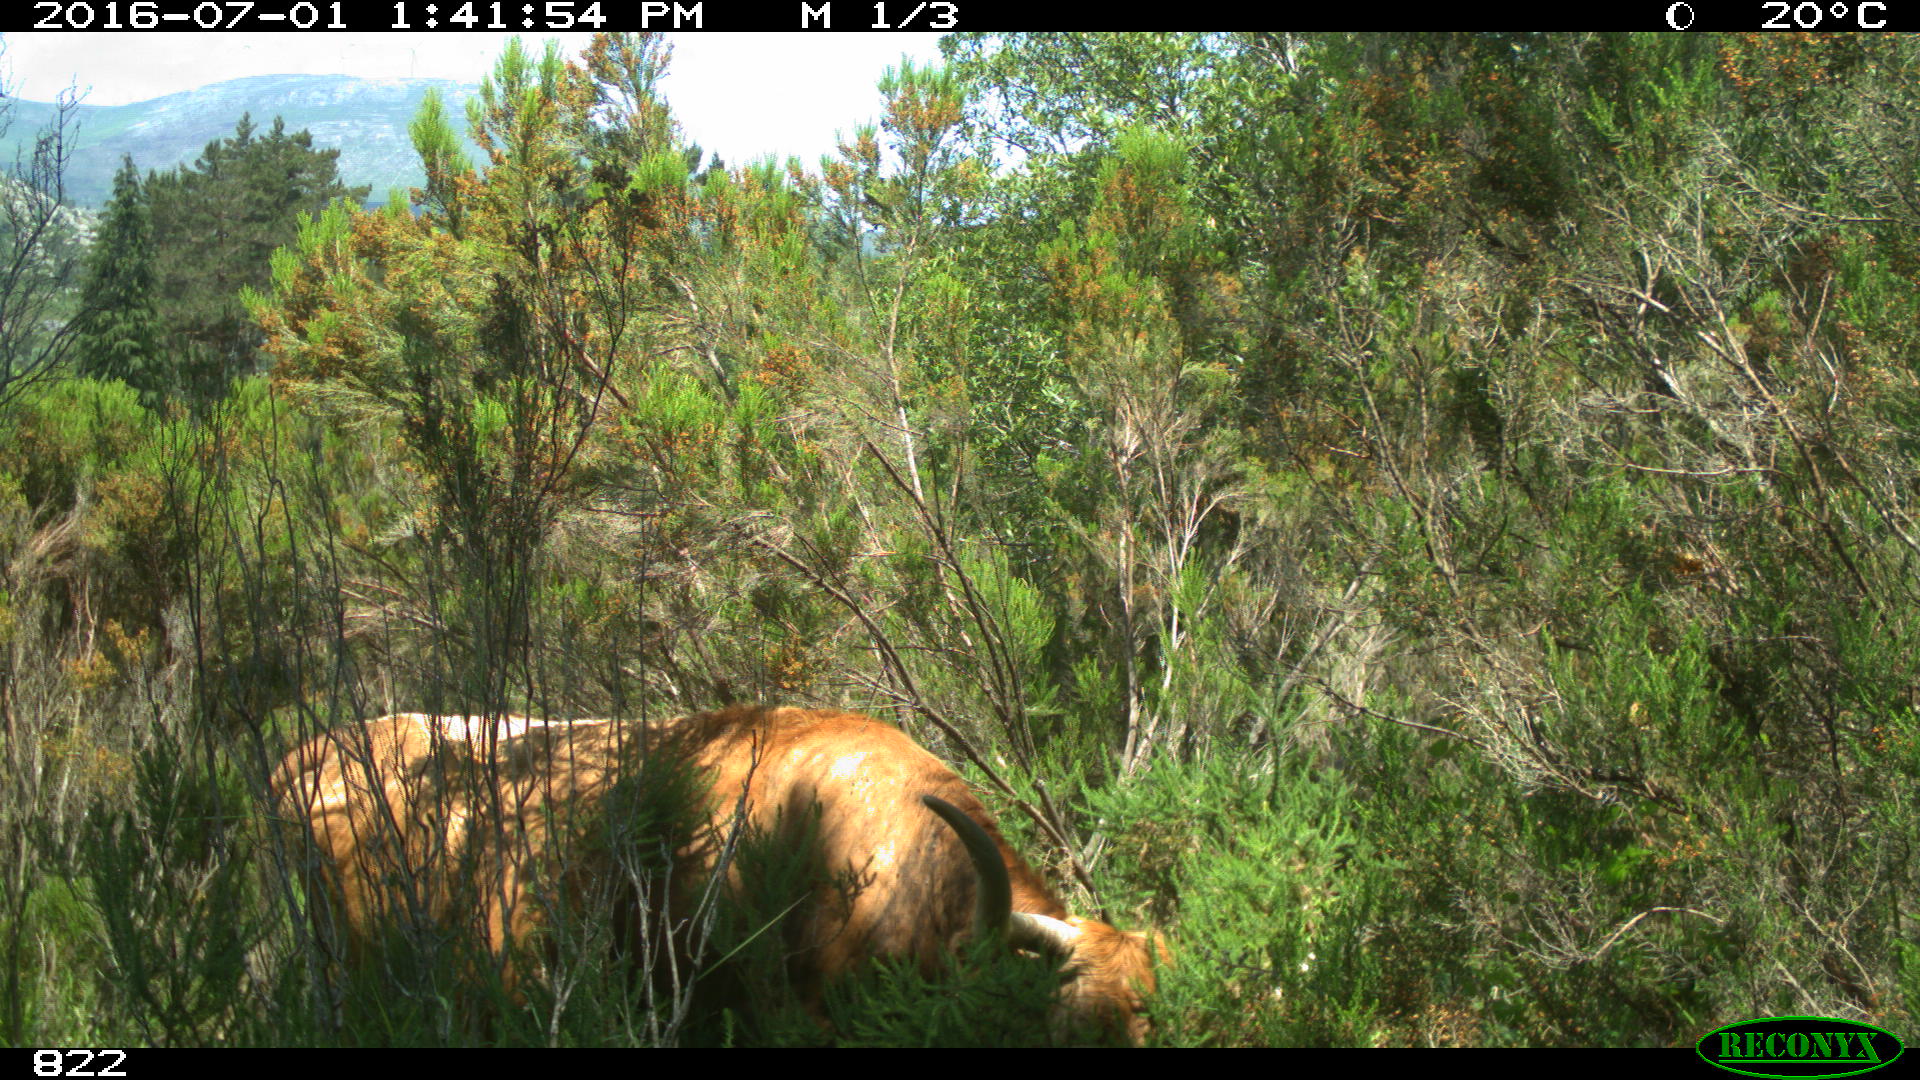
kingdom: Animalia
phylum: Chordata
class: Mammalia
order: Artiodactyla
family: Bovidae
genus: Bos
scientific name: Bos taurus
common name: Domesticated cattle
